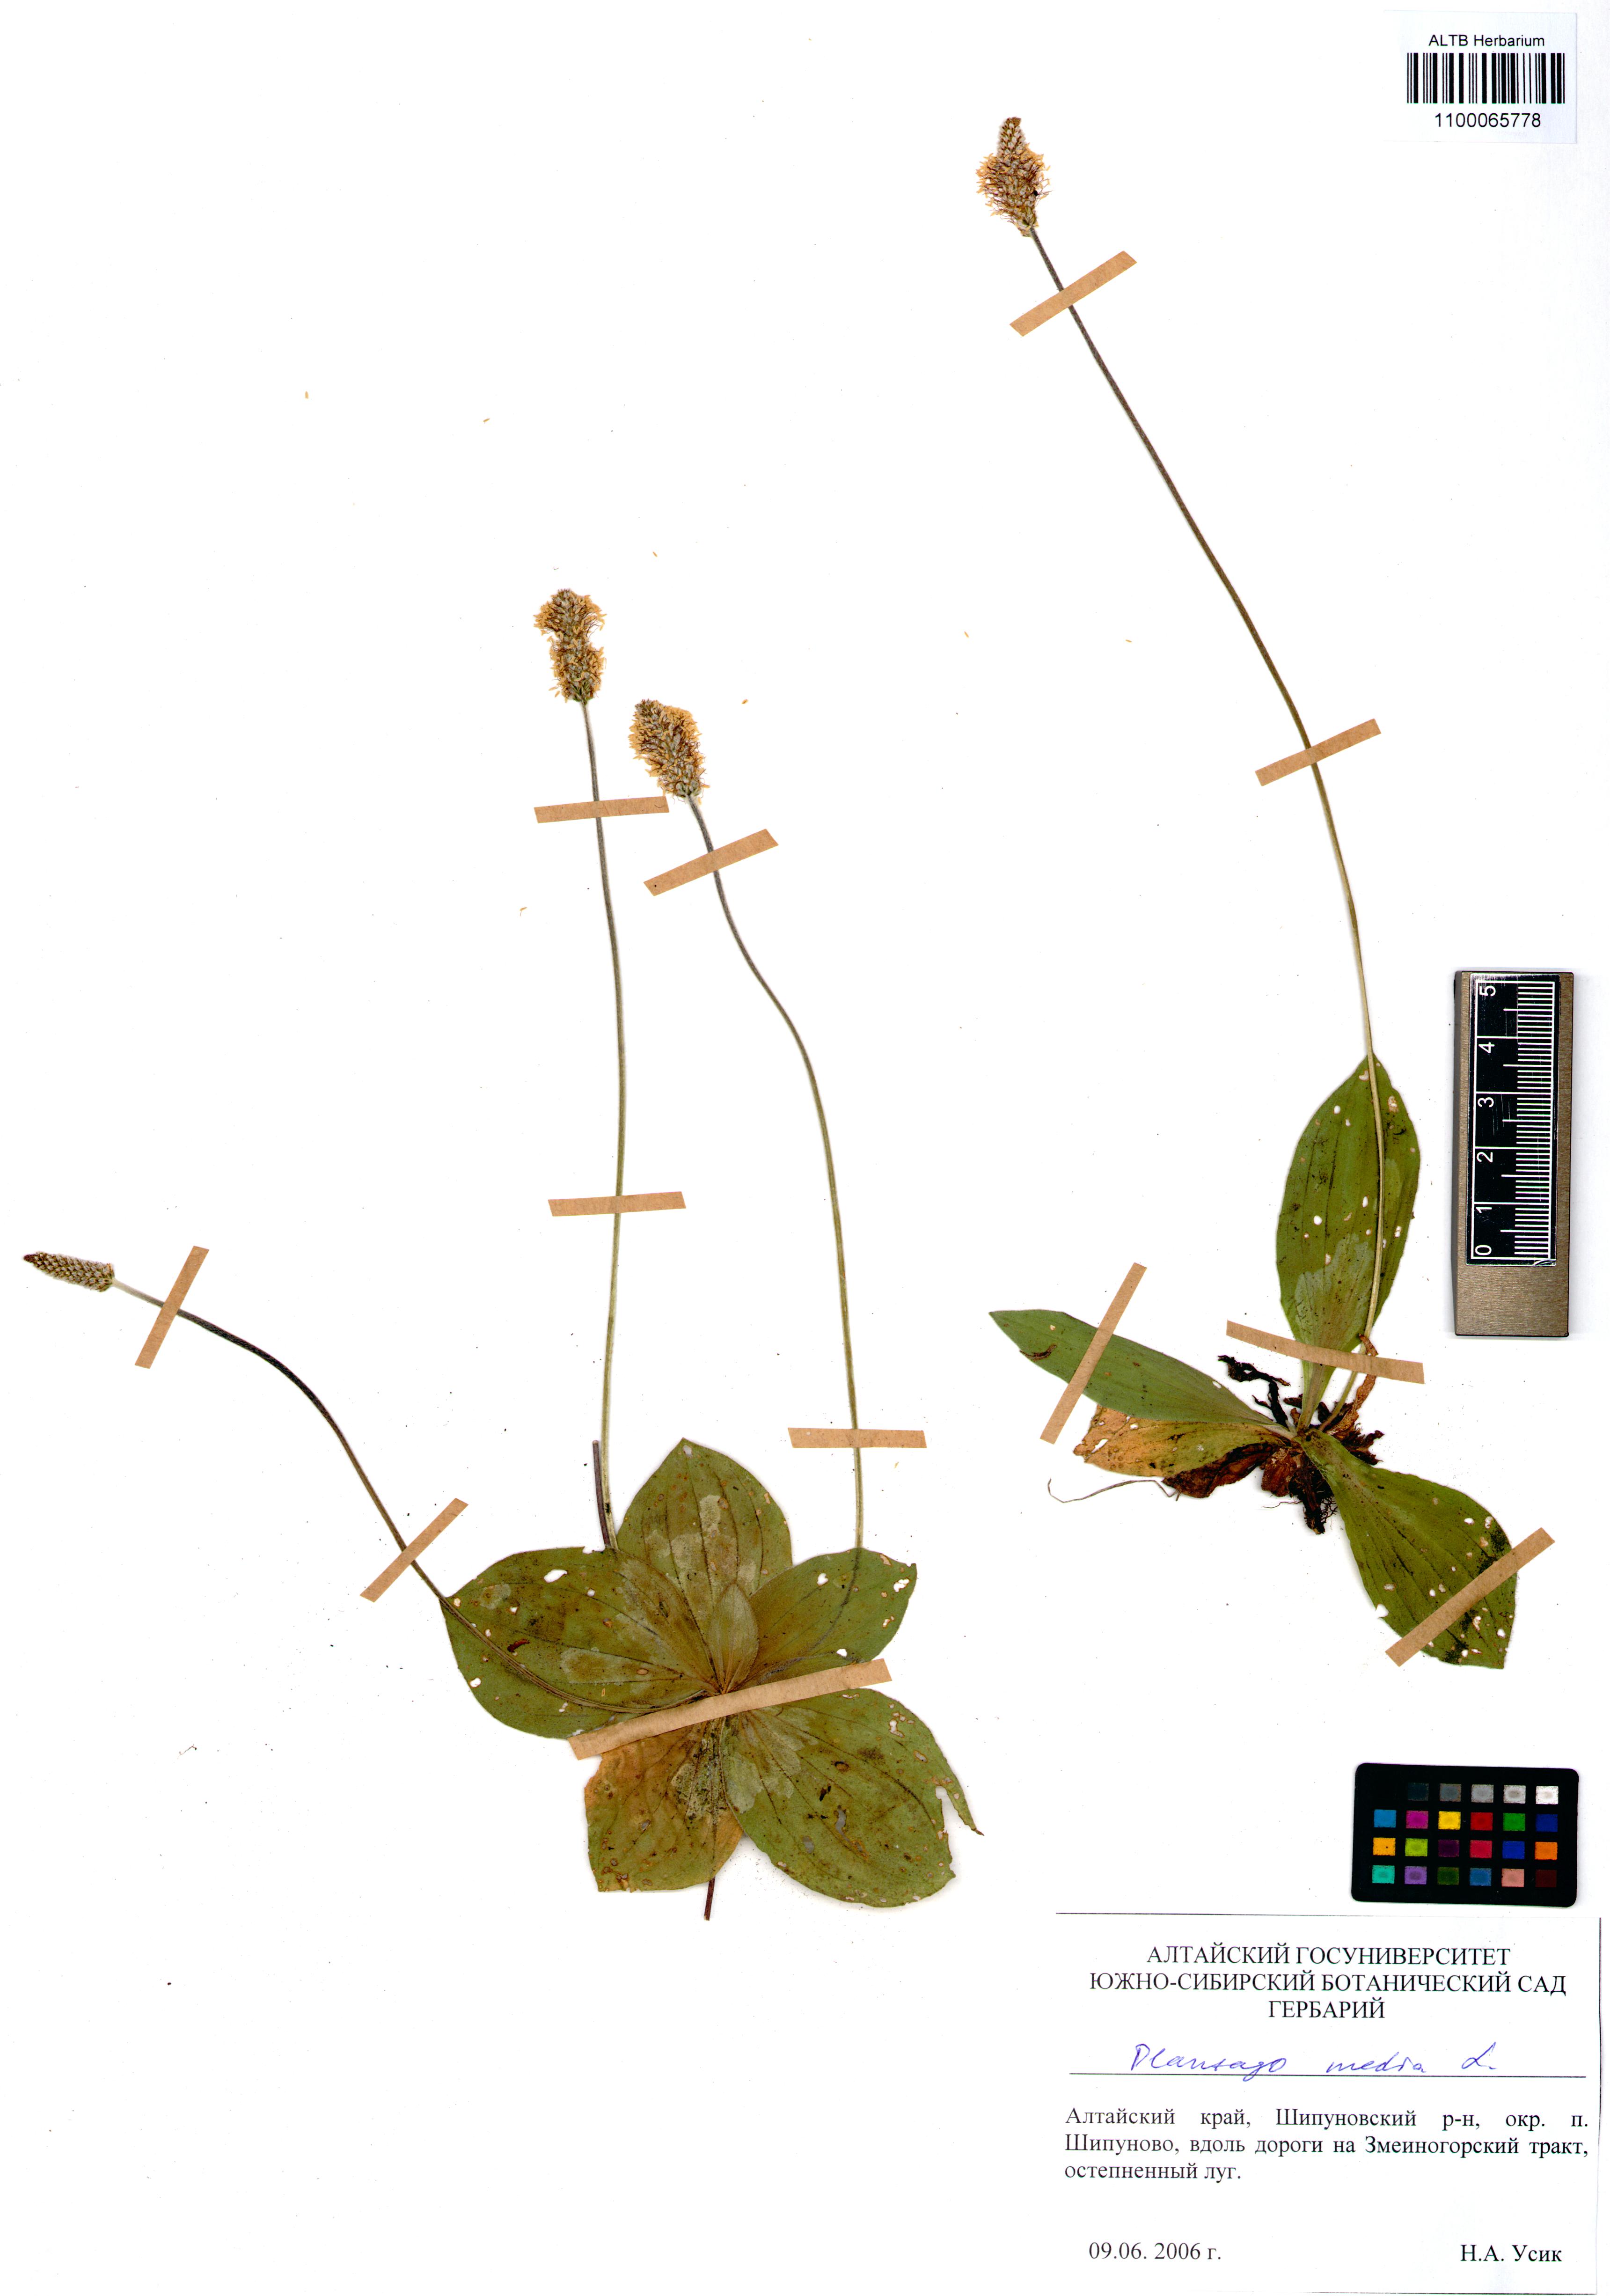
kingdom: Plantae
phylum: Tracheophyta
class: Magnoliopsida
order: Lamiales
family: Plantaginaceae
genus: Plantago
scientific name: Plantago media
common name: Hoary plantain
